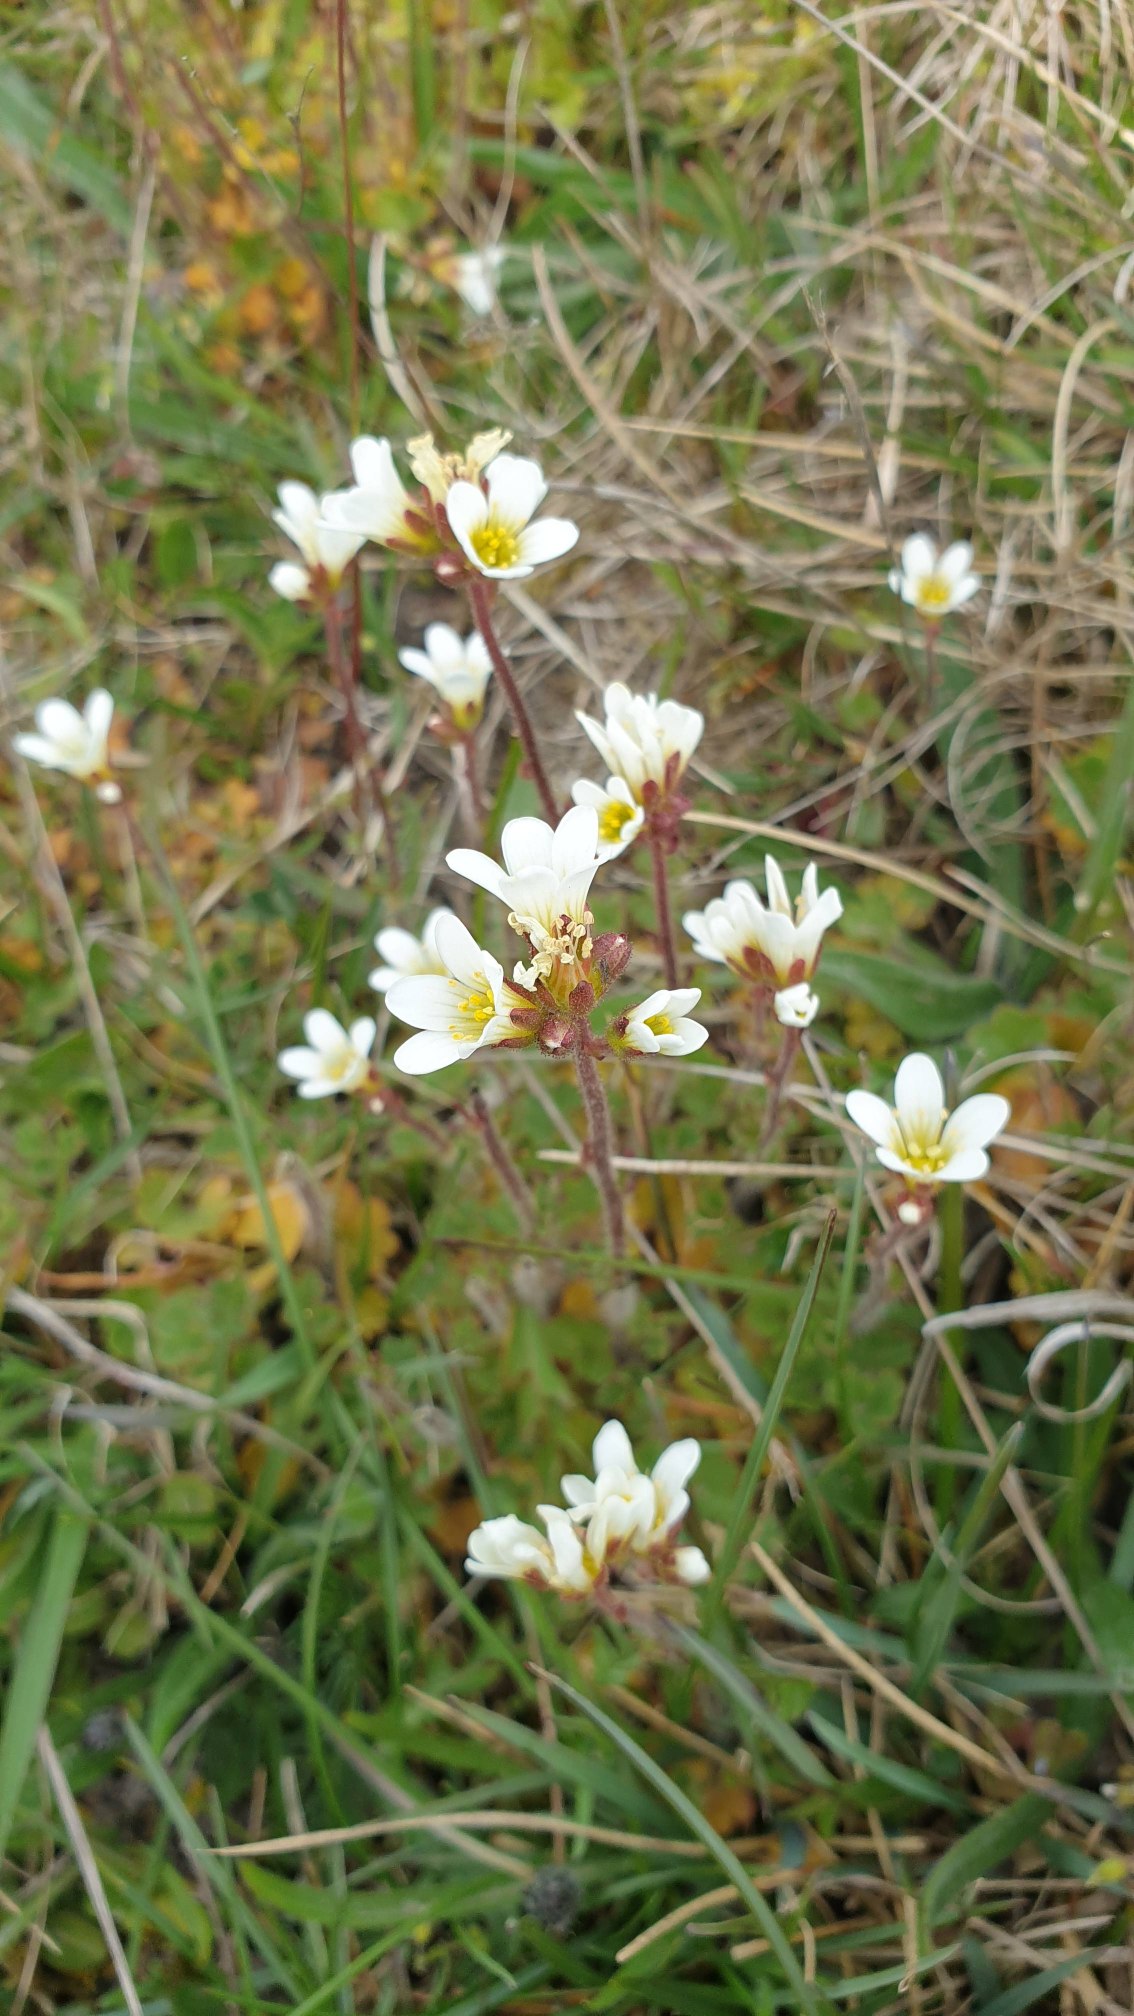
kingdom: Plantae
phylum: Tracheophyta
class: Magnoliopsida
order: Saxifragales
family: Saxifragaceae
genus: Saxifraga
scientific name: Saxifraga granulata
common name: Kornet stenbræk
